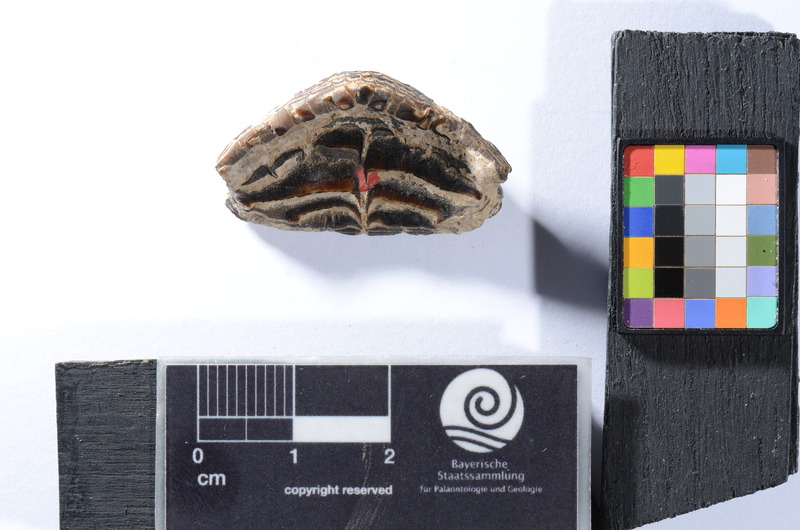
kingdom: Animalia
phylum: Chordata
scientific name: Chordata
